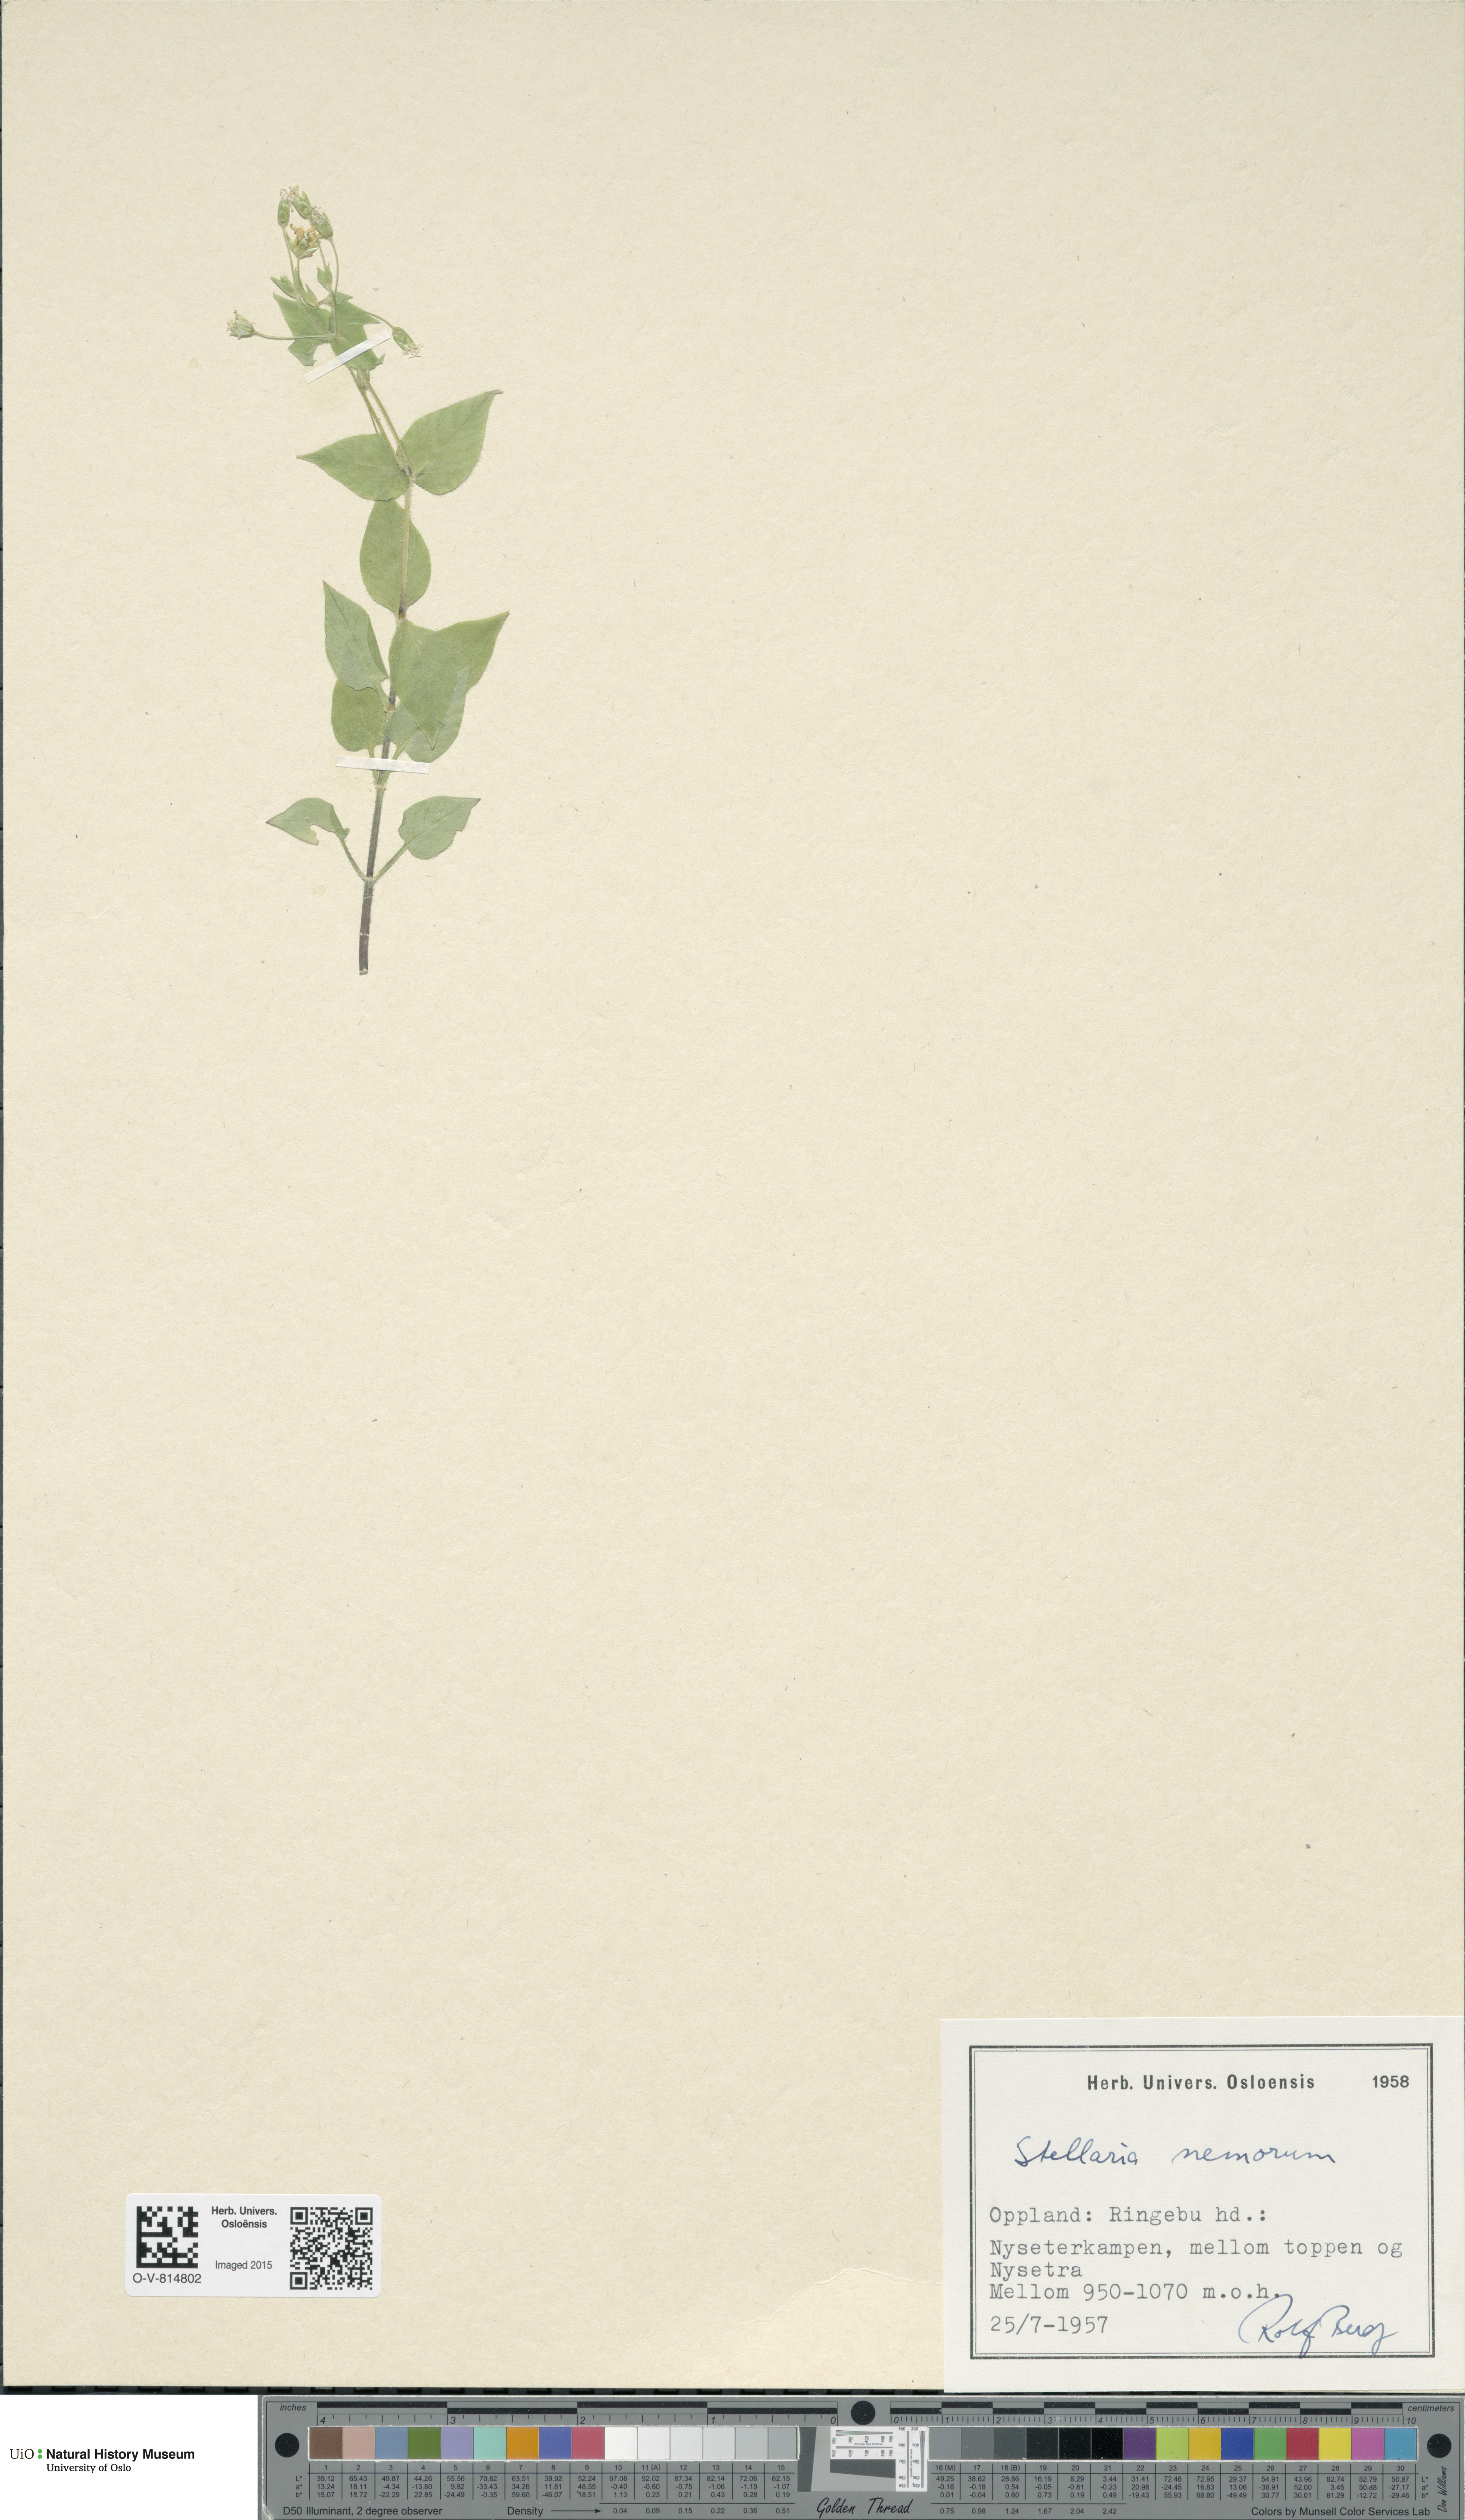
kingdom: Plantae
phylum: Tracheophyta
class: Magnoliopsida
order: Caryophyllales
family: Caryophyllaceae
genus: Stellaria
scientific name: Stellaria nemorum
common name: Wood stitchwort
